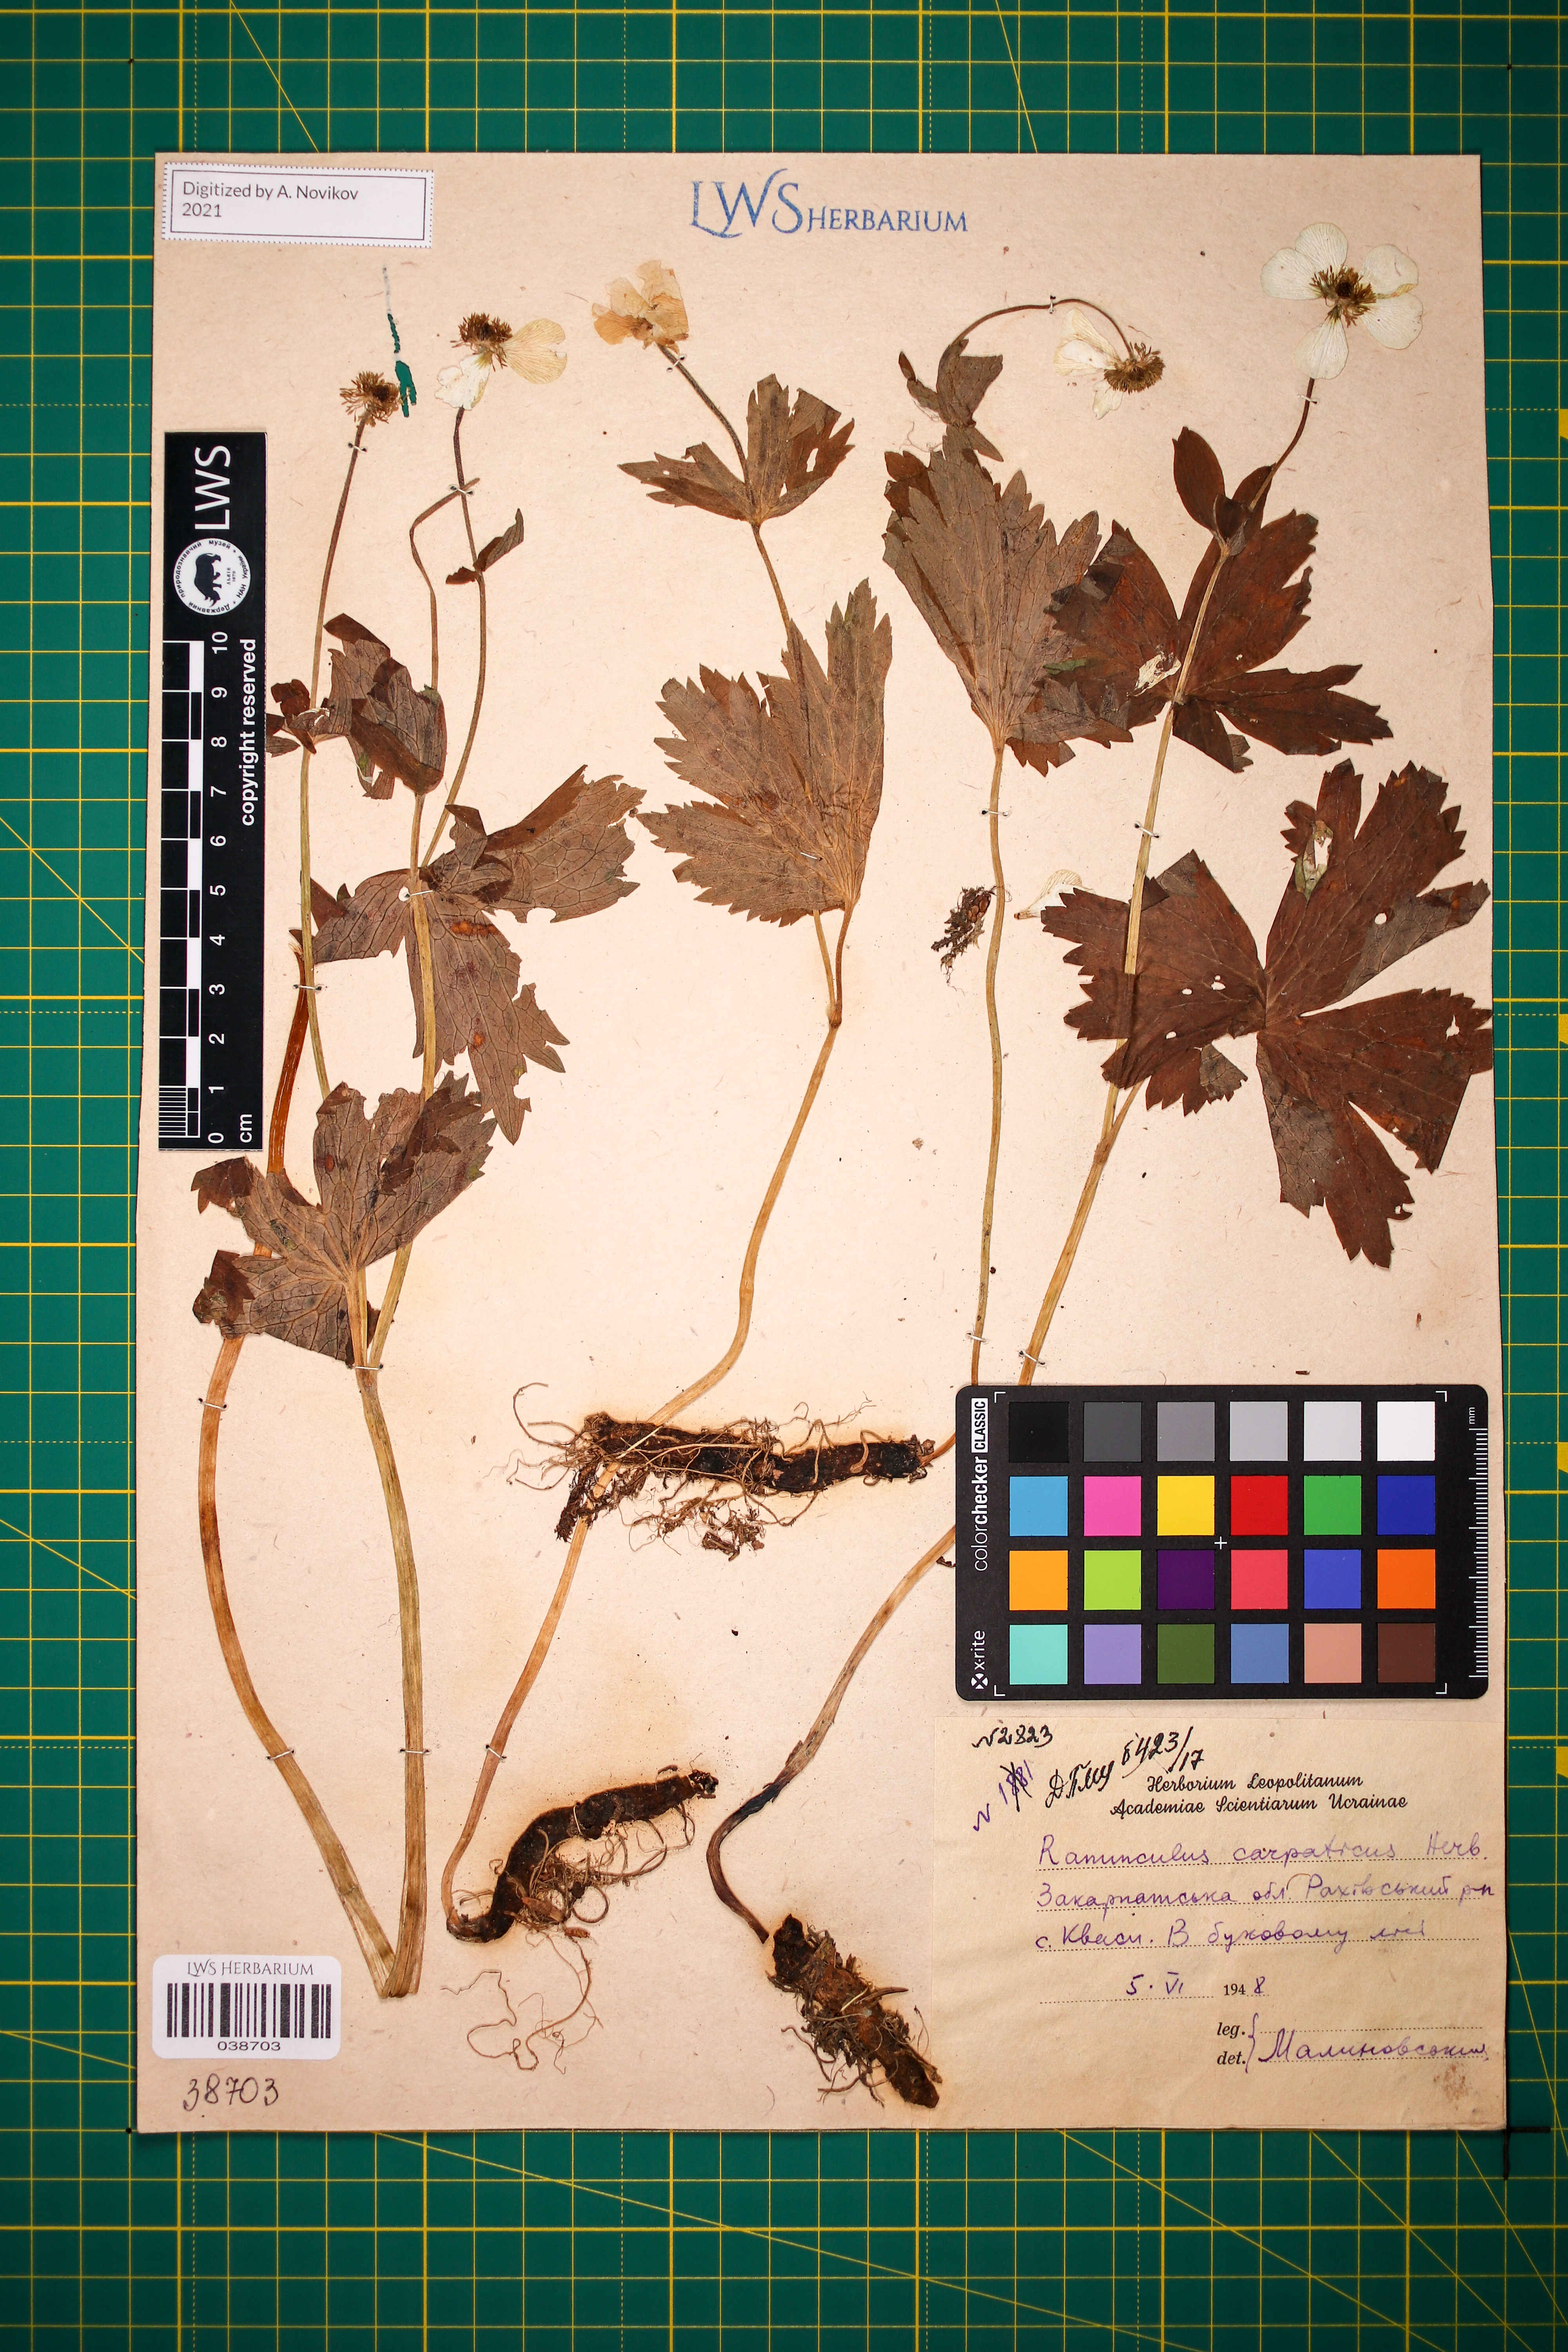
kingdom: Plantae
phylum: Tracheophyta
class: Magnoliopsida
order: Ranunculales
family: Ranunculaceae
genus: Ranunculus
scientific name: Ranunculus carpaticus
